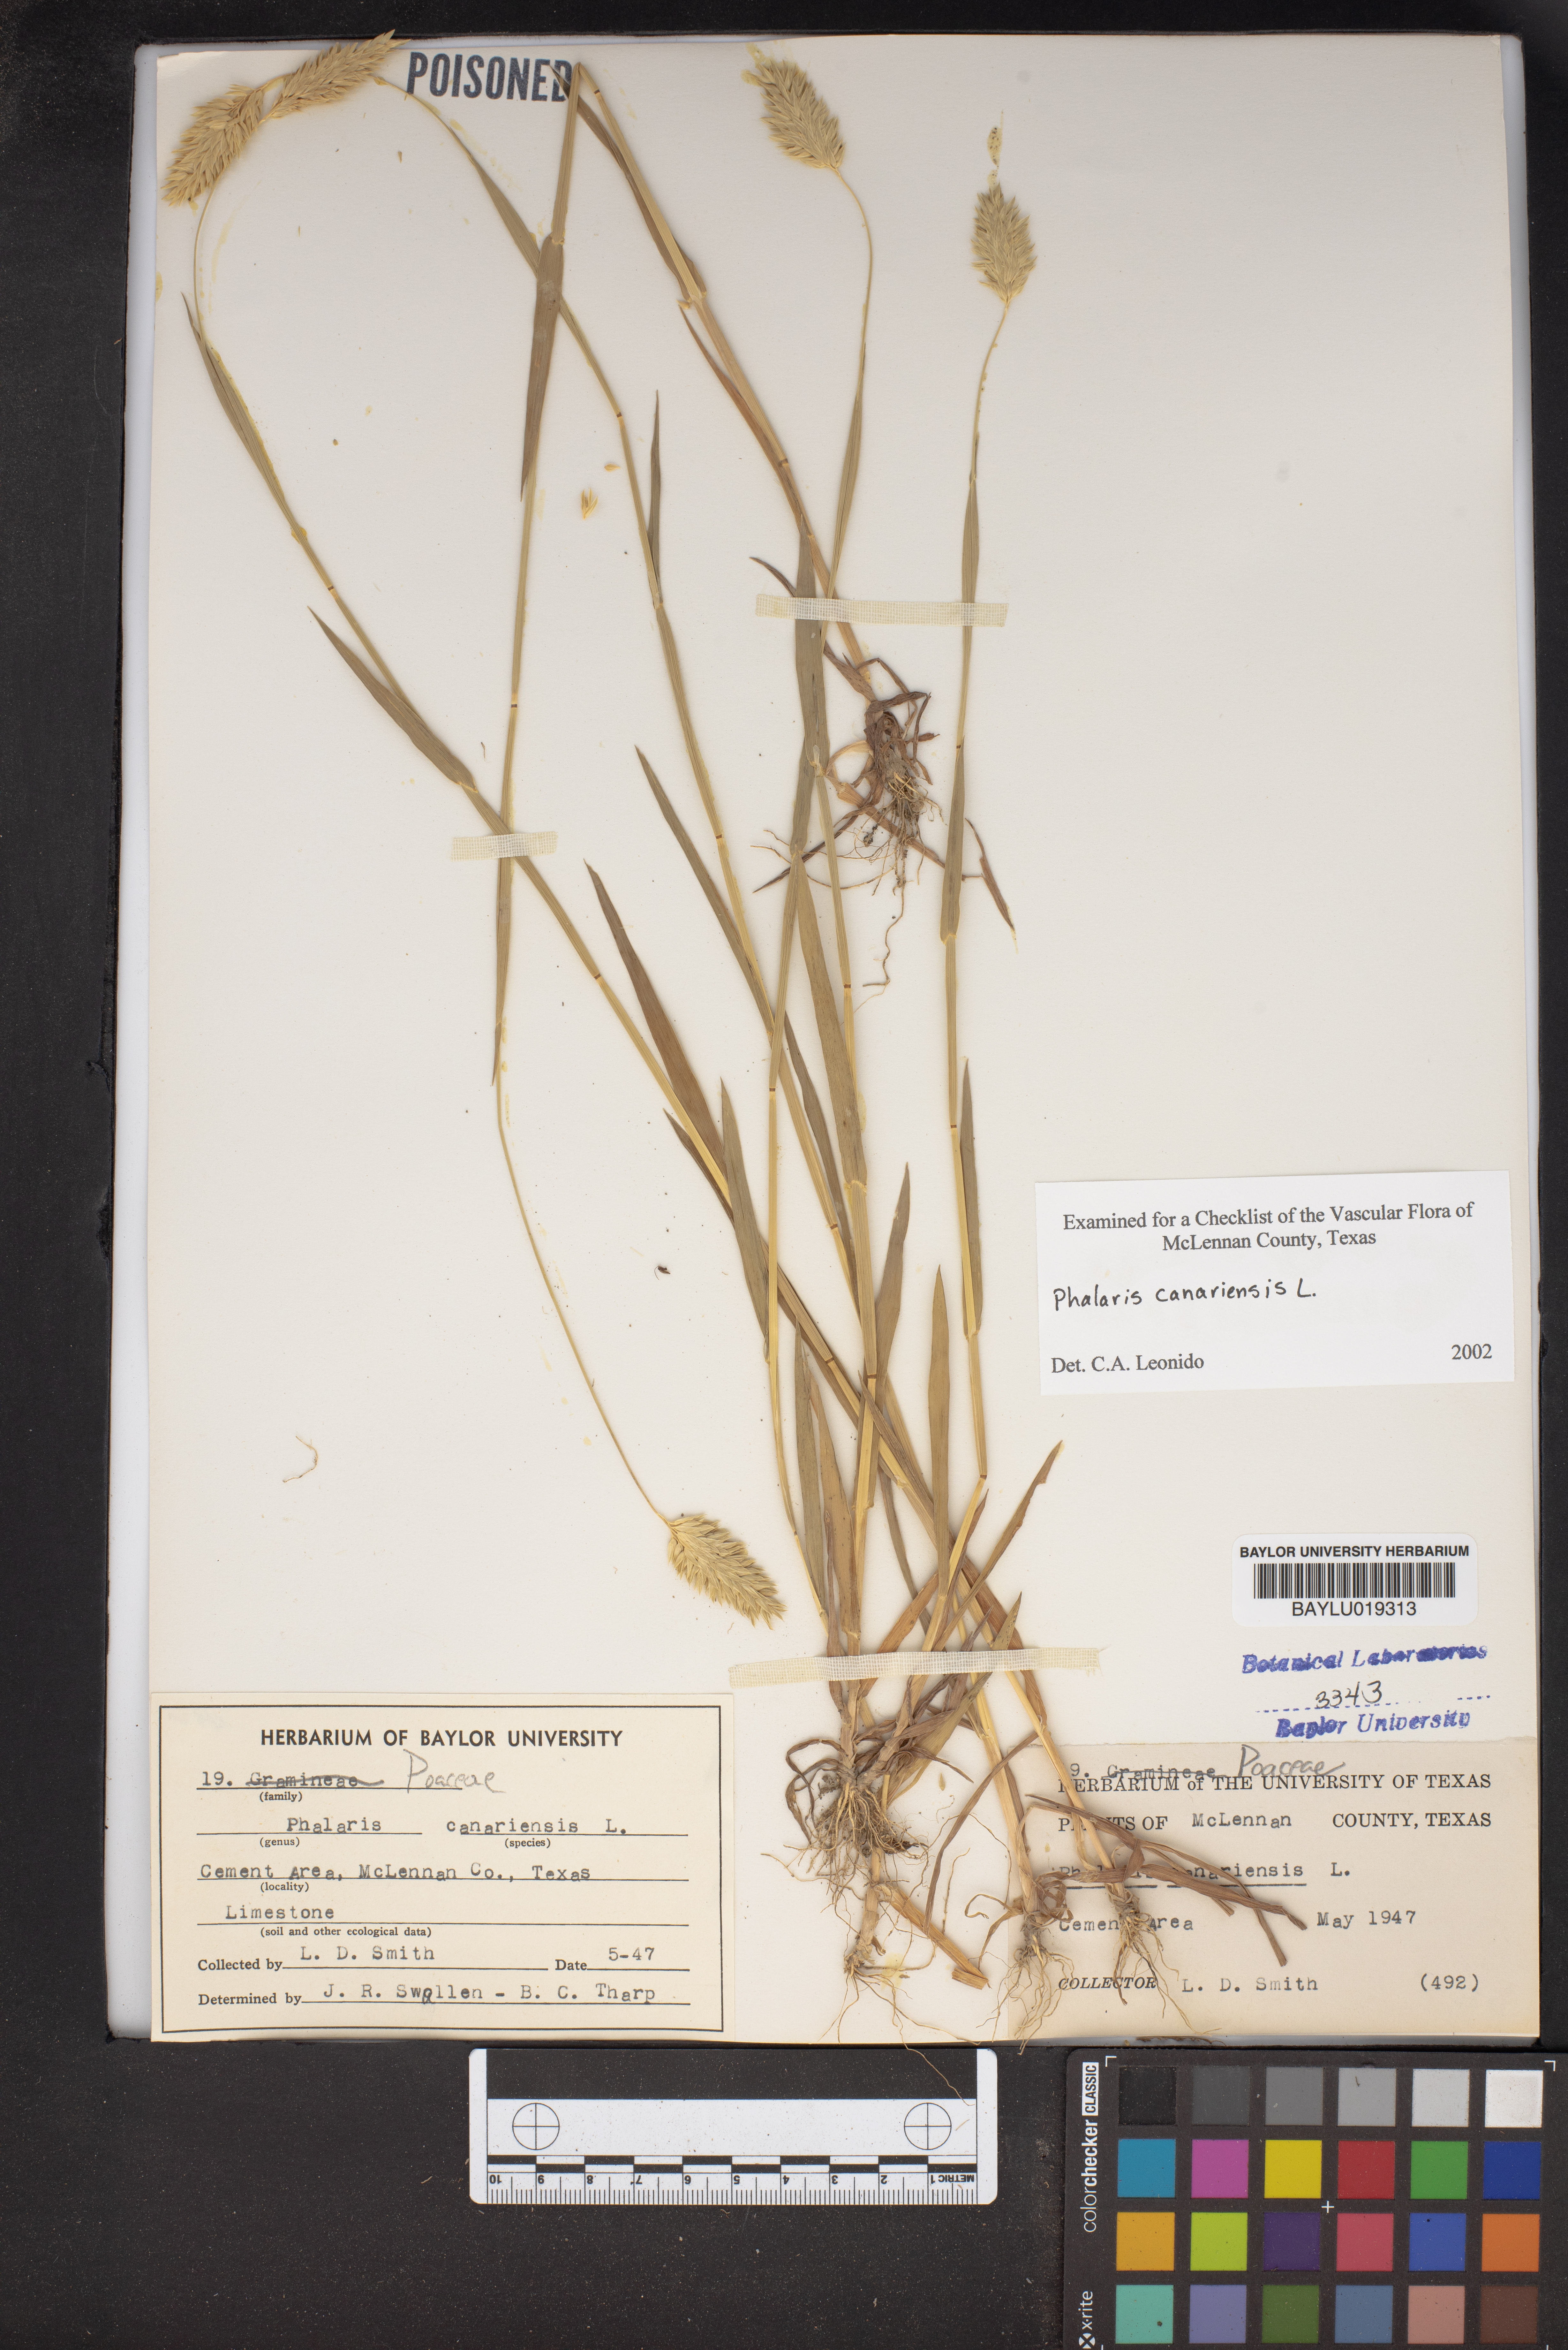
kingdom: Plantae
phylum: Tracheophyta
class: Liliopsida
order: Poales
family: Poaceae
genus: Phalaris
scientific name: Phalaris canariensis
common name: Annual canarygrass
